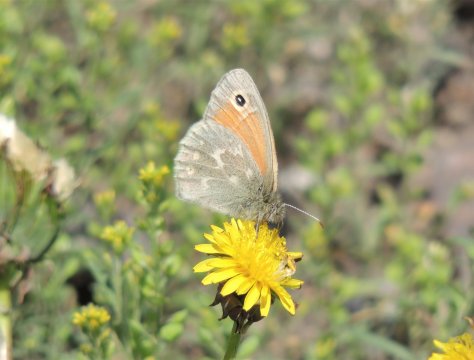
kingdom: Animalia
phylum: Arthropoda
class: Insecta
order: Lepidoptera
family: Nymphalidae
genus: Coenonympha
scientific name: Coenonympha tullia
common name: Large Heath
